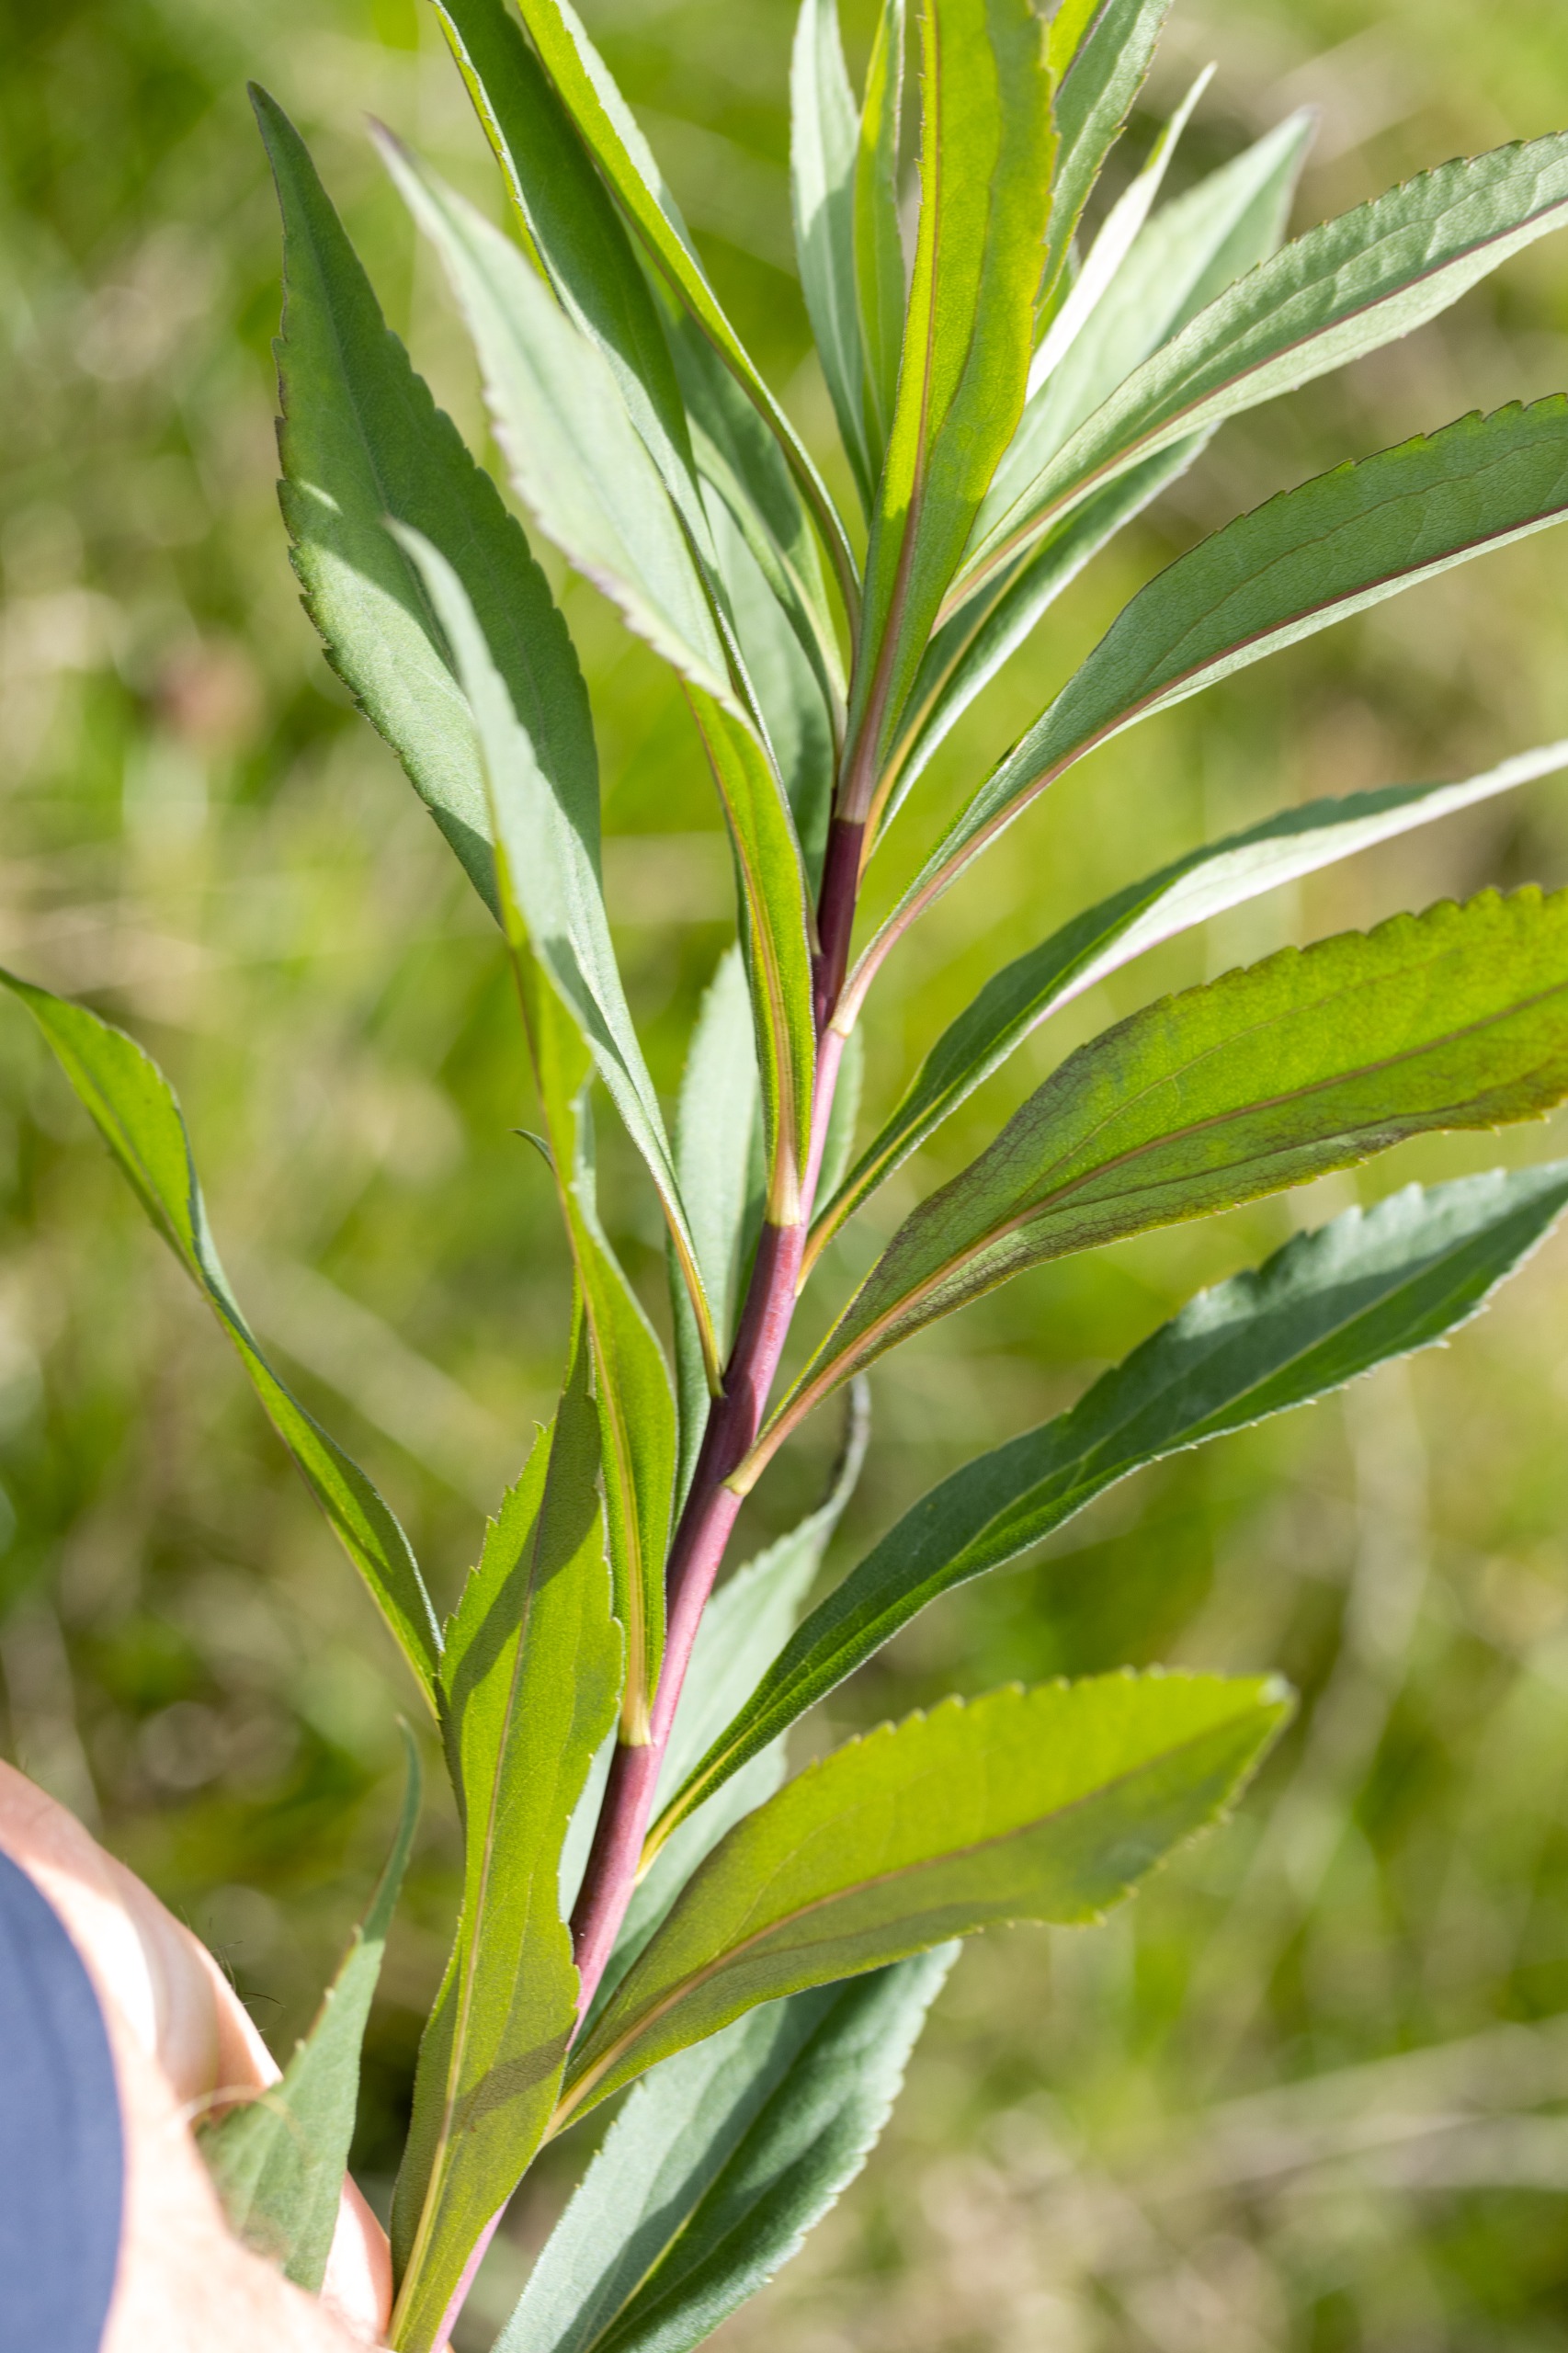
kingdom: Plantae
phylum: Tracheophyta
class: Magnoliopsida
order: Asterales
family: Asteraceae
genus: Solidago
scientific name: Solidago gigantea
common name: Sildig gyldenris
